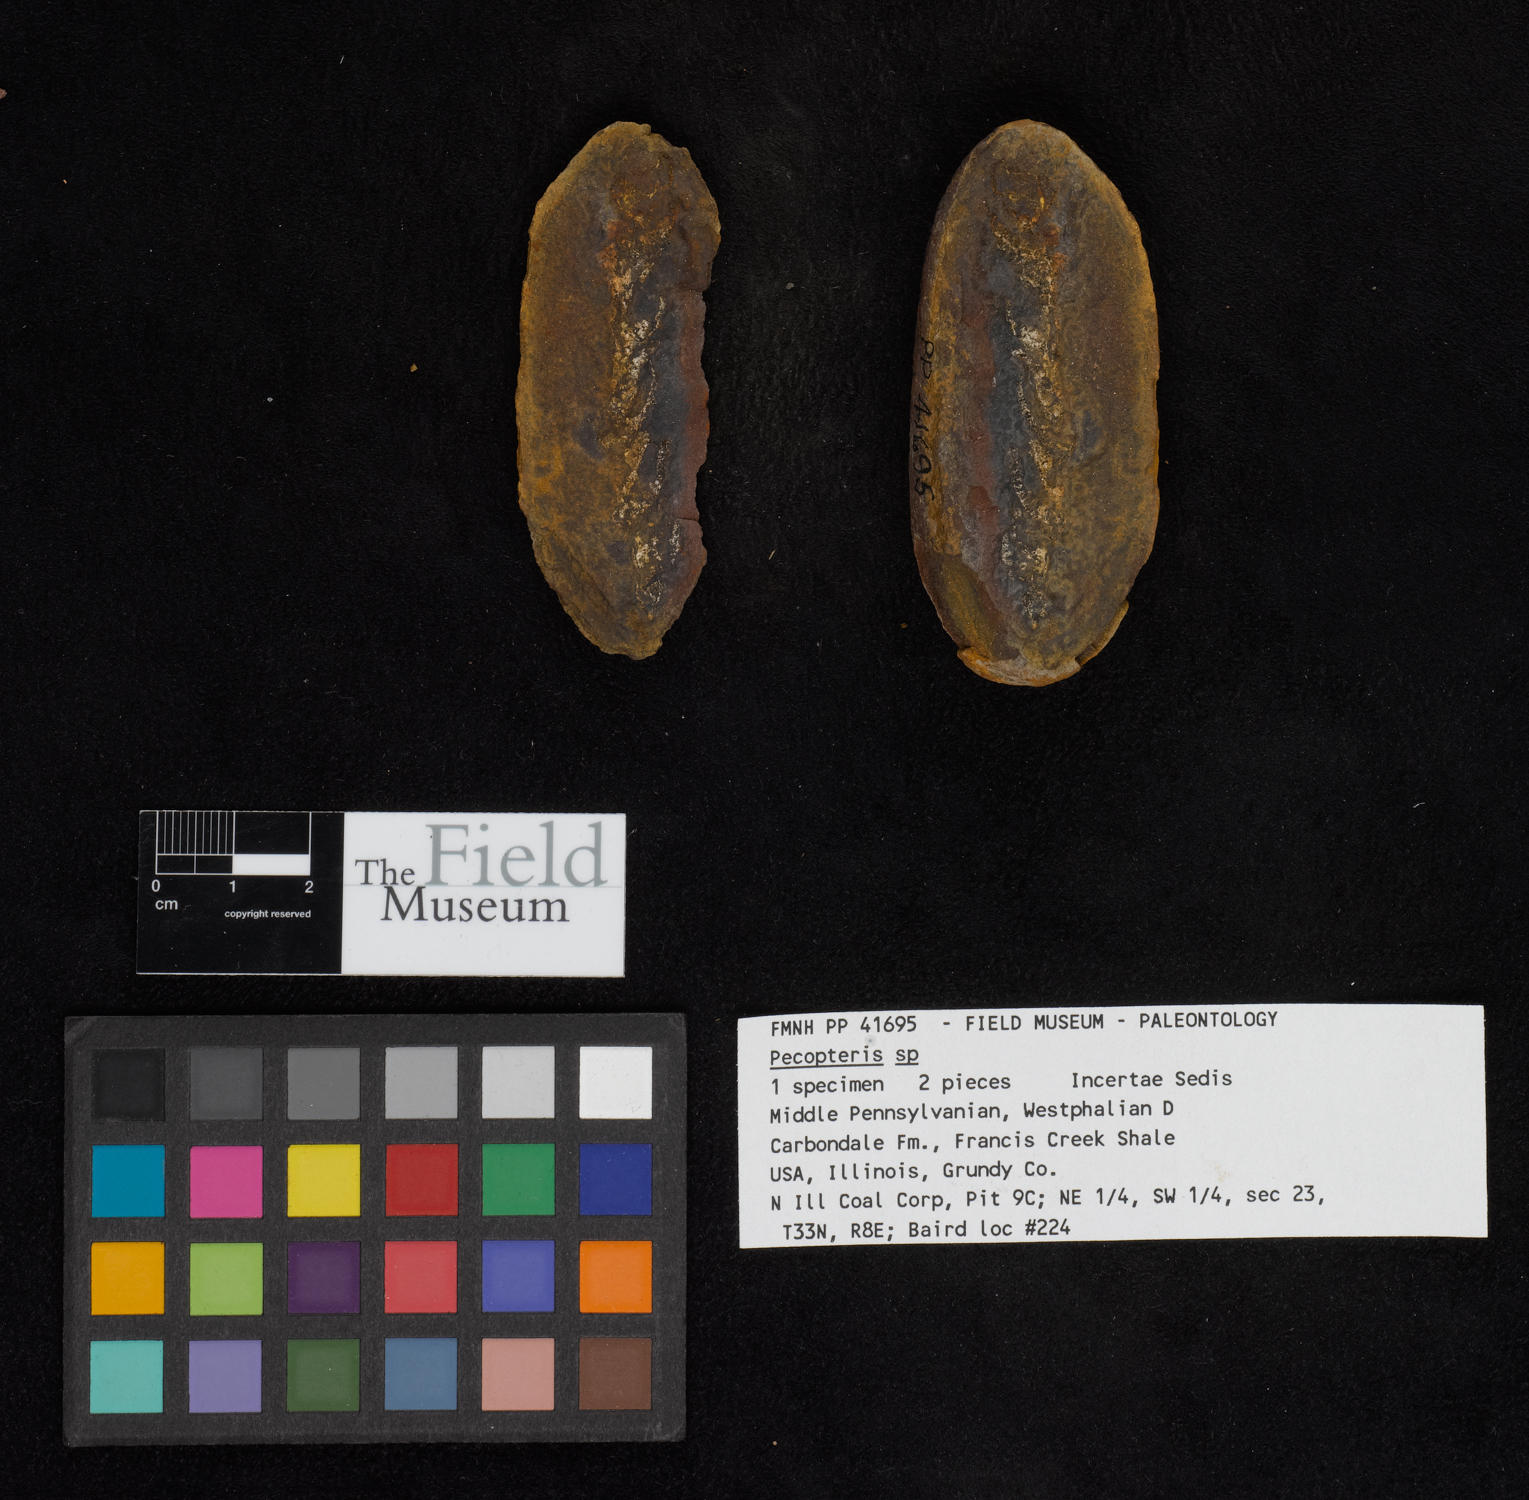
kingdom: Plantae
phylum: Tracheophyta
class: Polypodiopsida
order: Marattiales
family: Asterothecaceae
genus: Pecopteris
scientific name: Pecopteris
